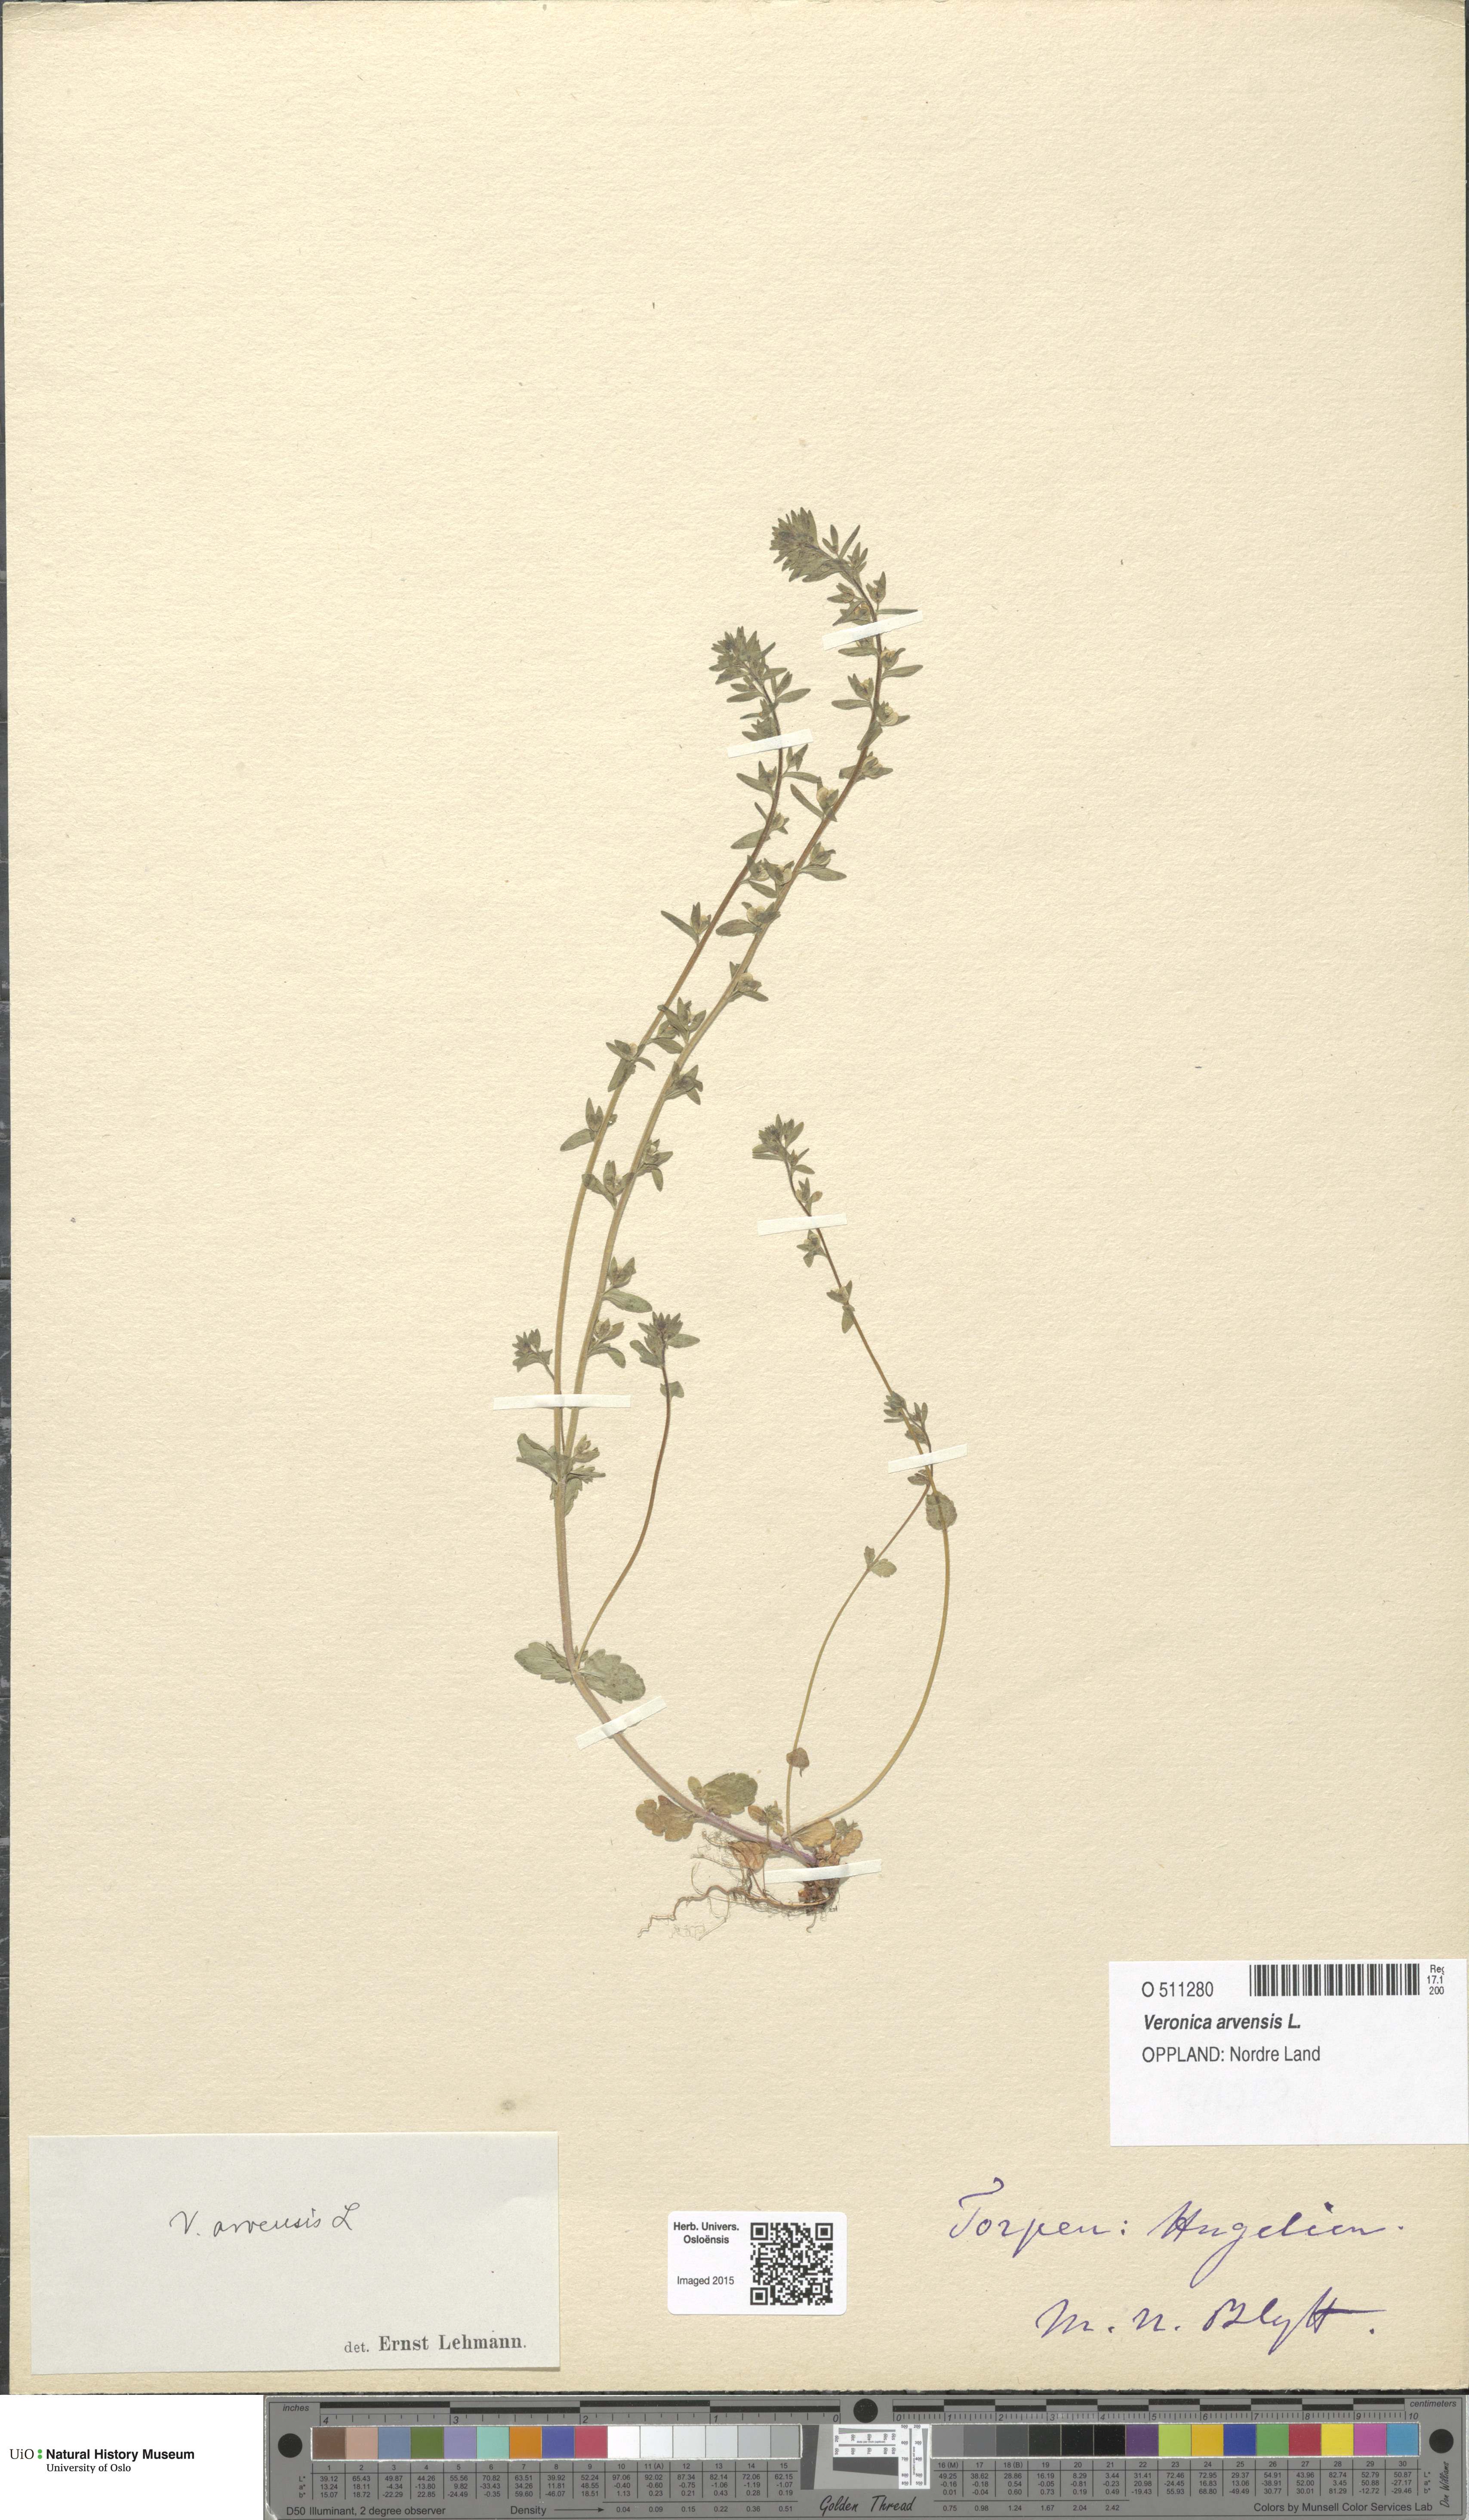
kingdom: Plantae
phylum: Tracheophyta
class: Magnoliopsida
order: Lamiales
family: Plantaginaceae
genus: Veronica
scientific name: Veronica arvensis
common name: Corn speedwell
